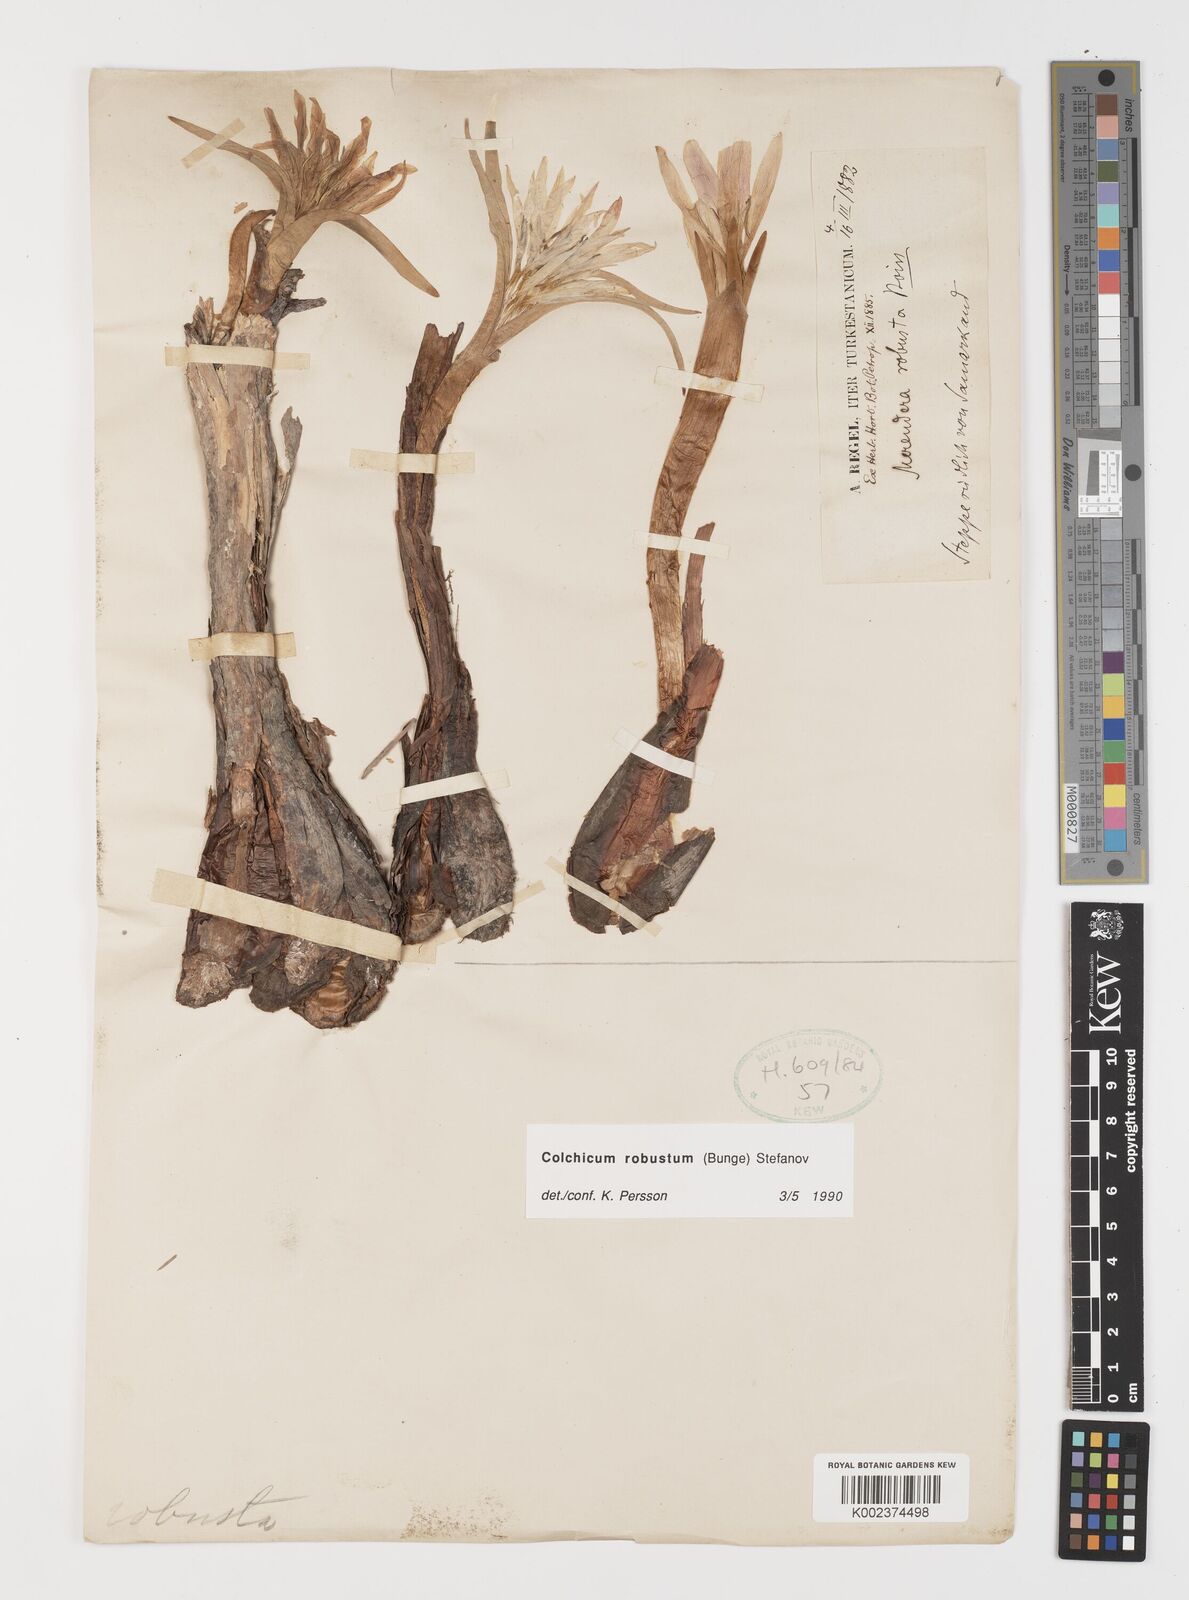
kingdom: Plantae
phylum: Tracheophyta
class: Liliopsida
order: Liliales
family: Colchicaceae
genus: Colchicum
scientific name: Colchicum robustum
